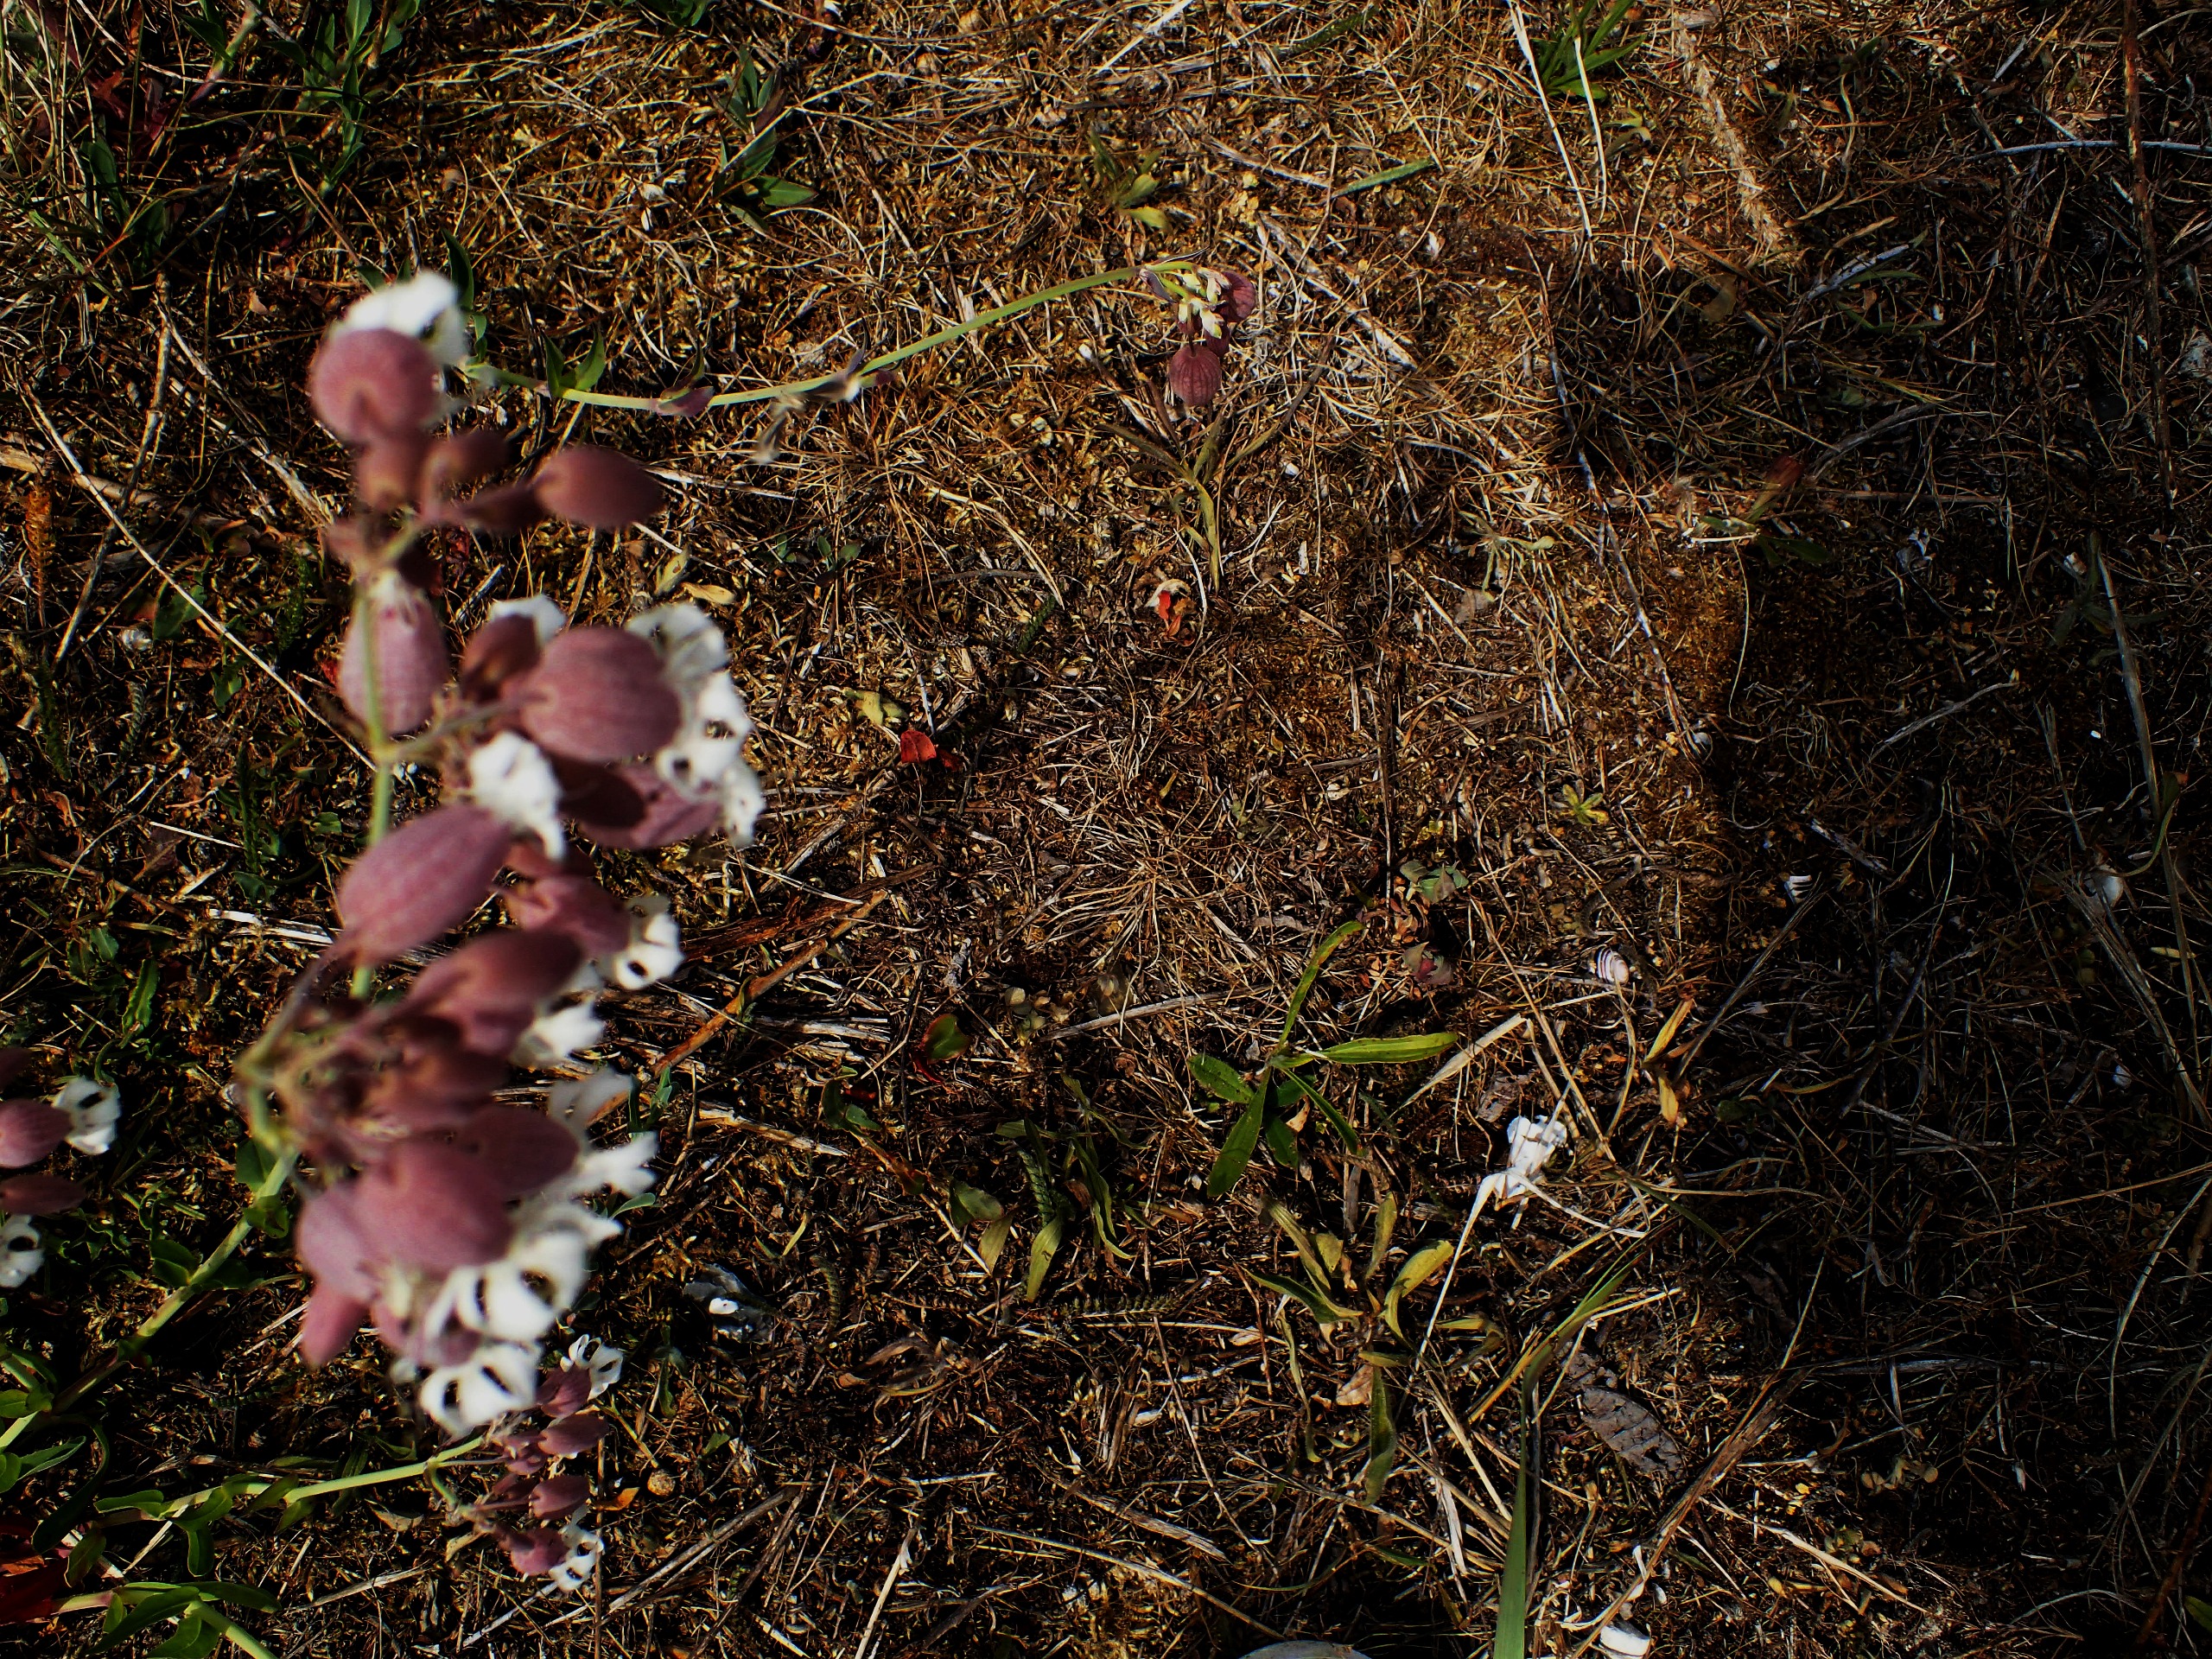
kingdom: Plantae
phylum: Tracheophyta
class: Magnoliopsida
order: Caryophyllales
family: Caryophyllaceae
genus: Silene
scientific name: Silene vulgaris
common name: Blæresmælde
